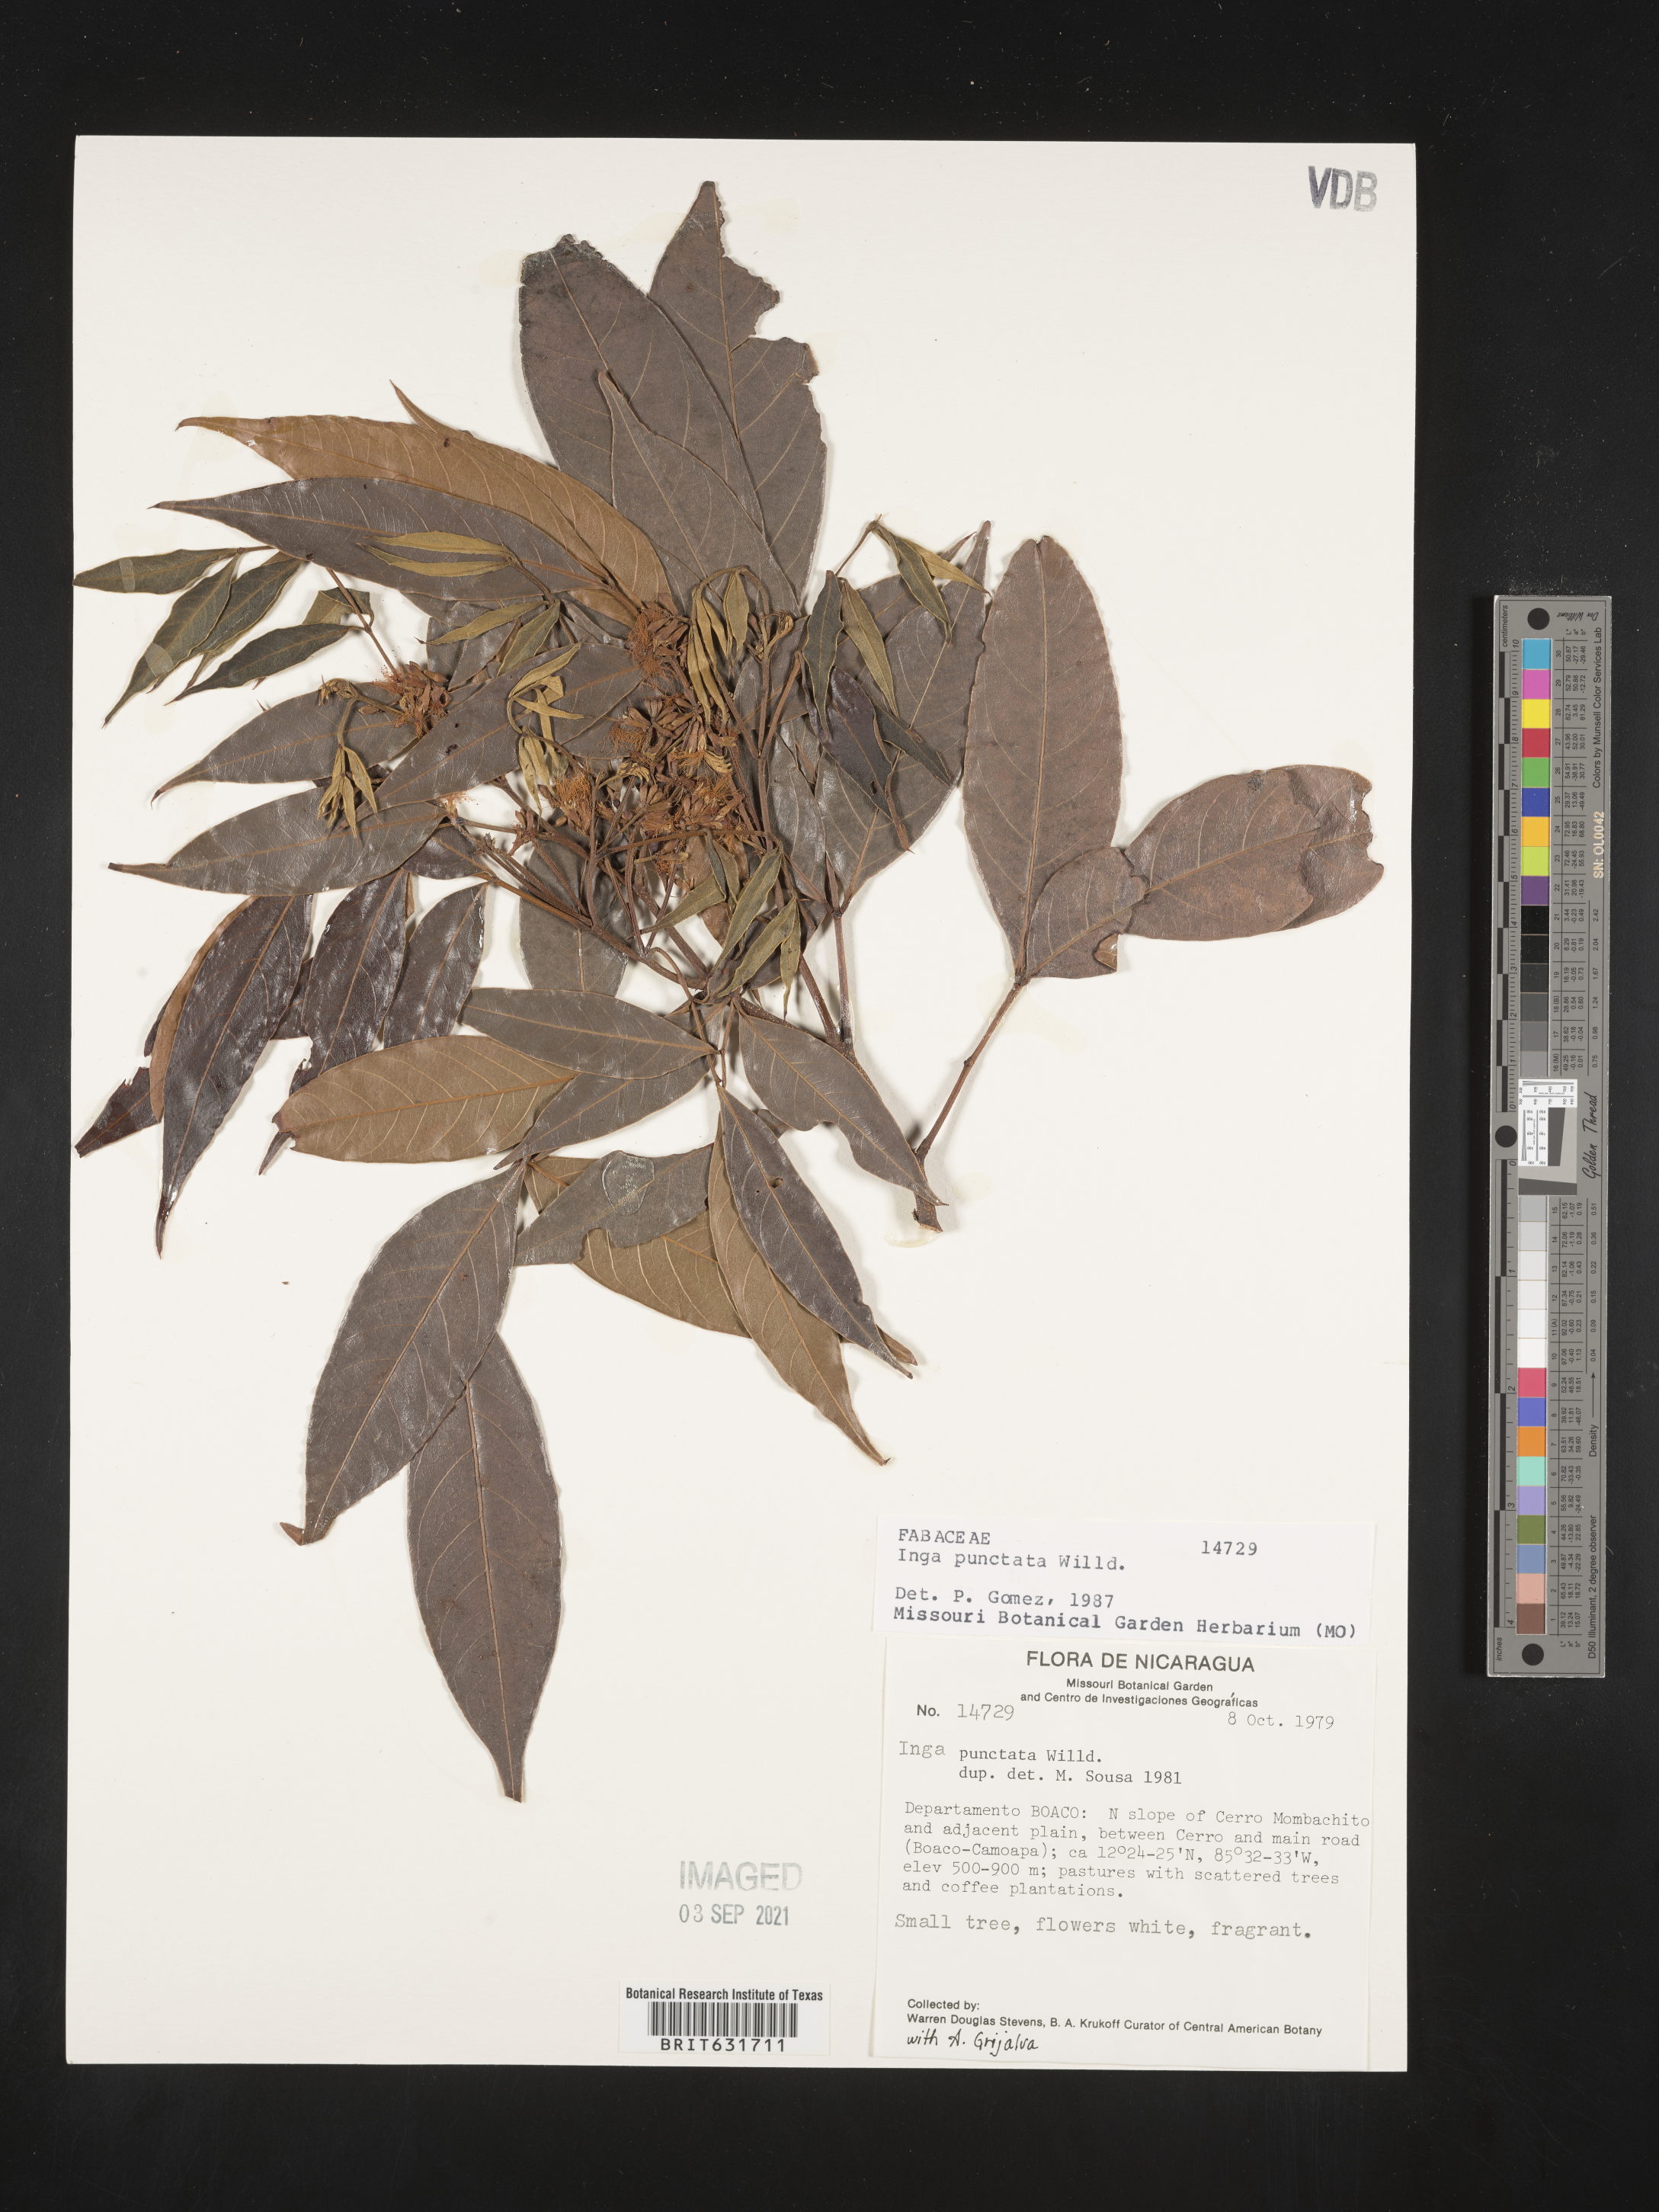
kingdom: Plantae
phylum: Tracheophyta
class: Magnoliopsida
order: Fabales
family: Fabaceae
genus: Inga
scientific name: Inga
